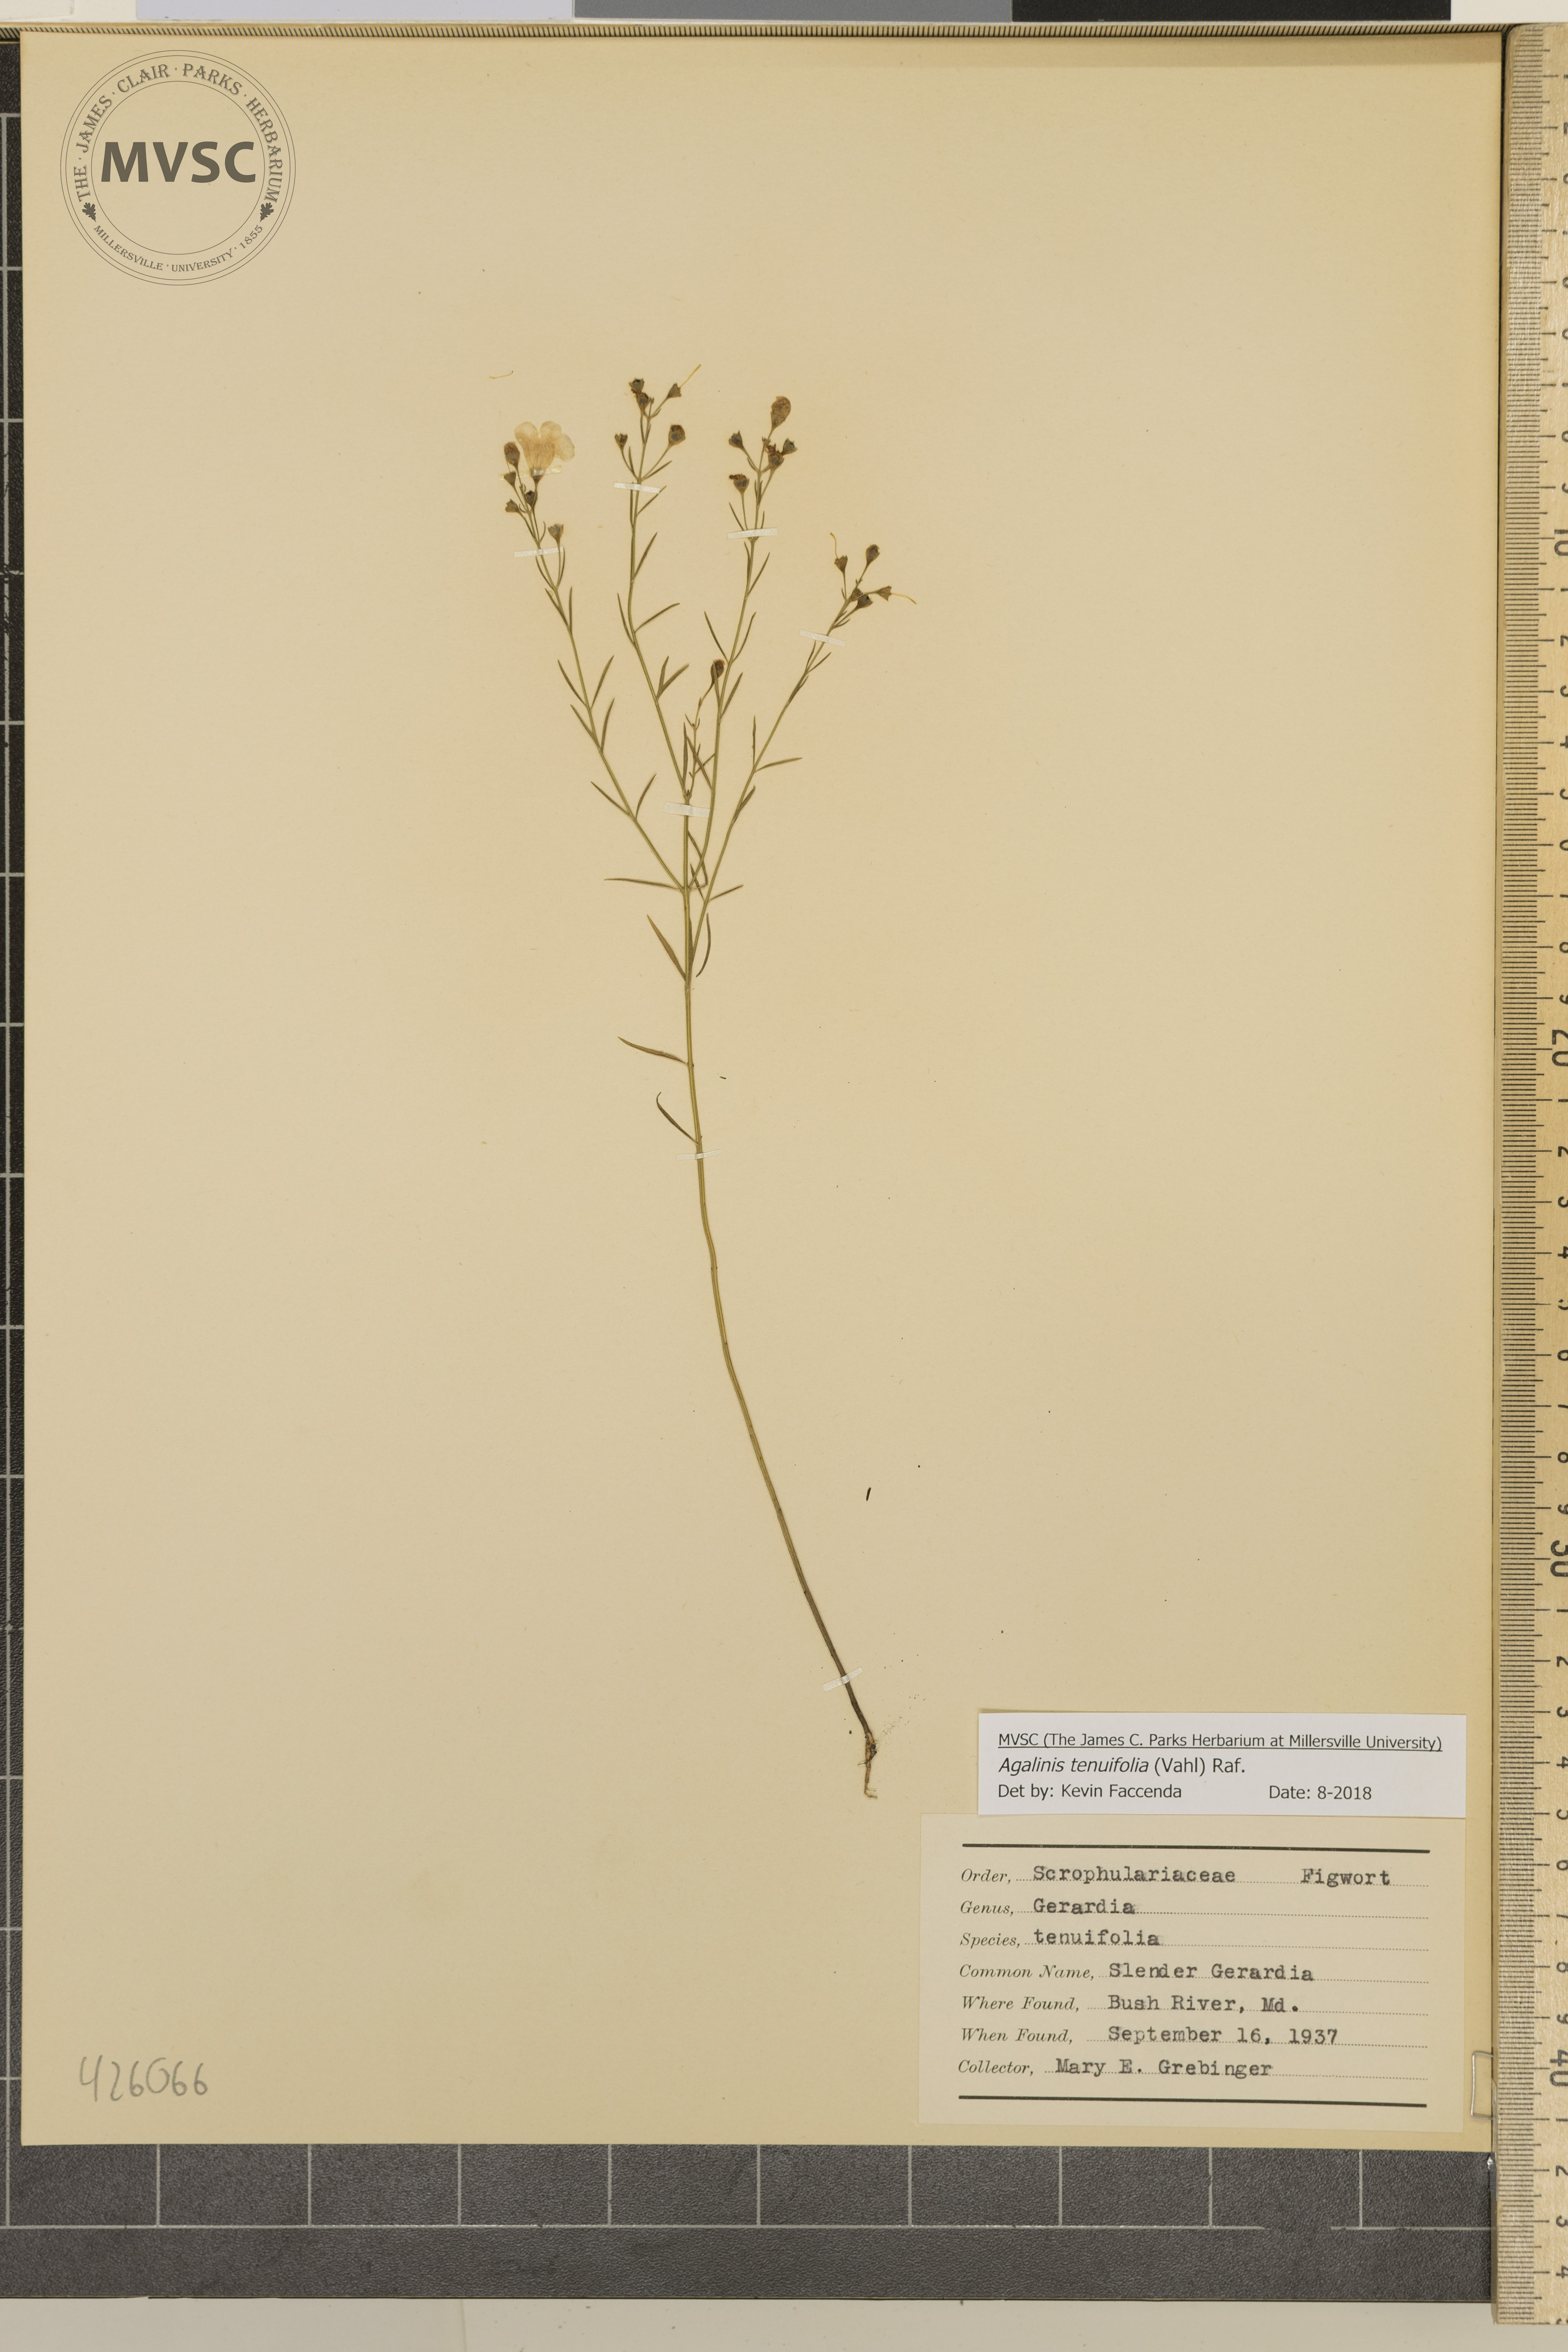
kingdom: Plantae
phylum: Tracheophyta
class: Magnoliopsida
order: Lamiales
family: Orobanchaceae
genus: Agalinis
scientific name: Agalinis tenuifolia
